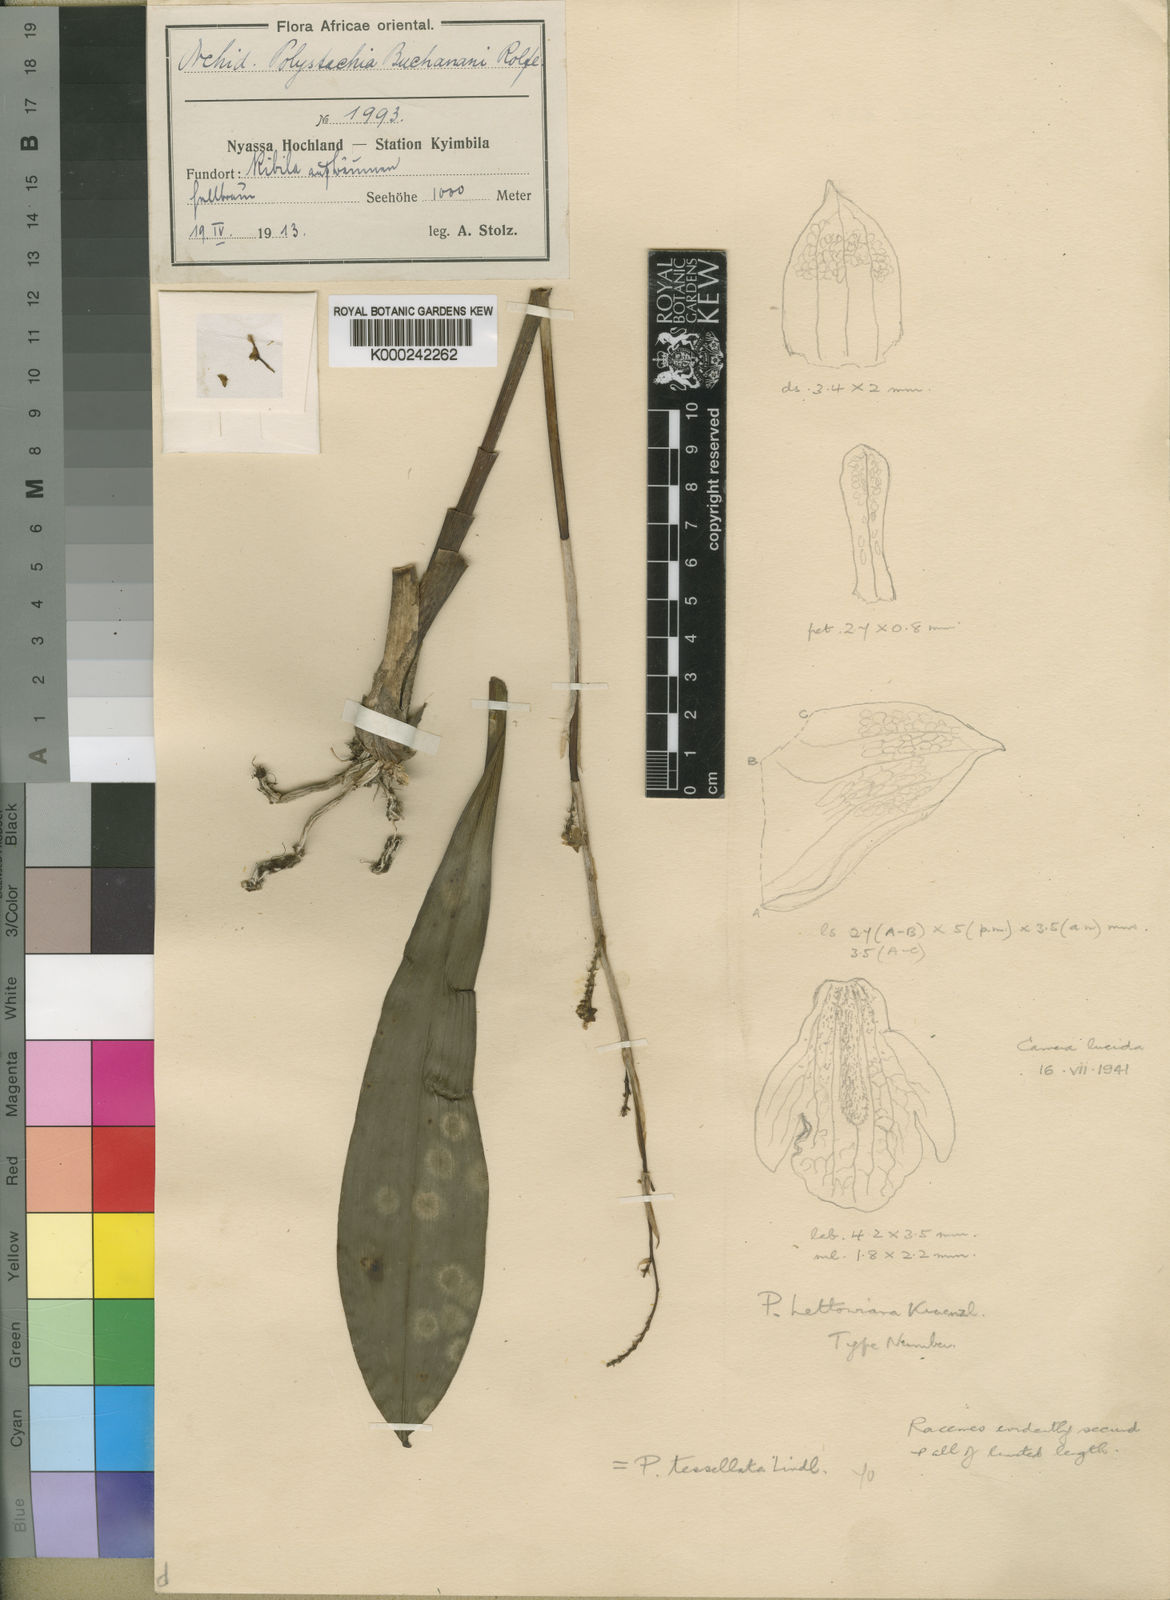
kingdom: Plantae
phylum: Tracheophyta
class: Liliopsida
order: Asparagales
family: Orchidaceae
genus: Polystachya
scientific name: Polystachya concreta
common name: Greater yellowspike orchid
